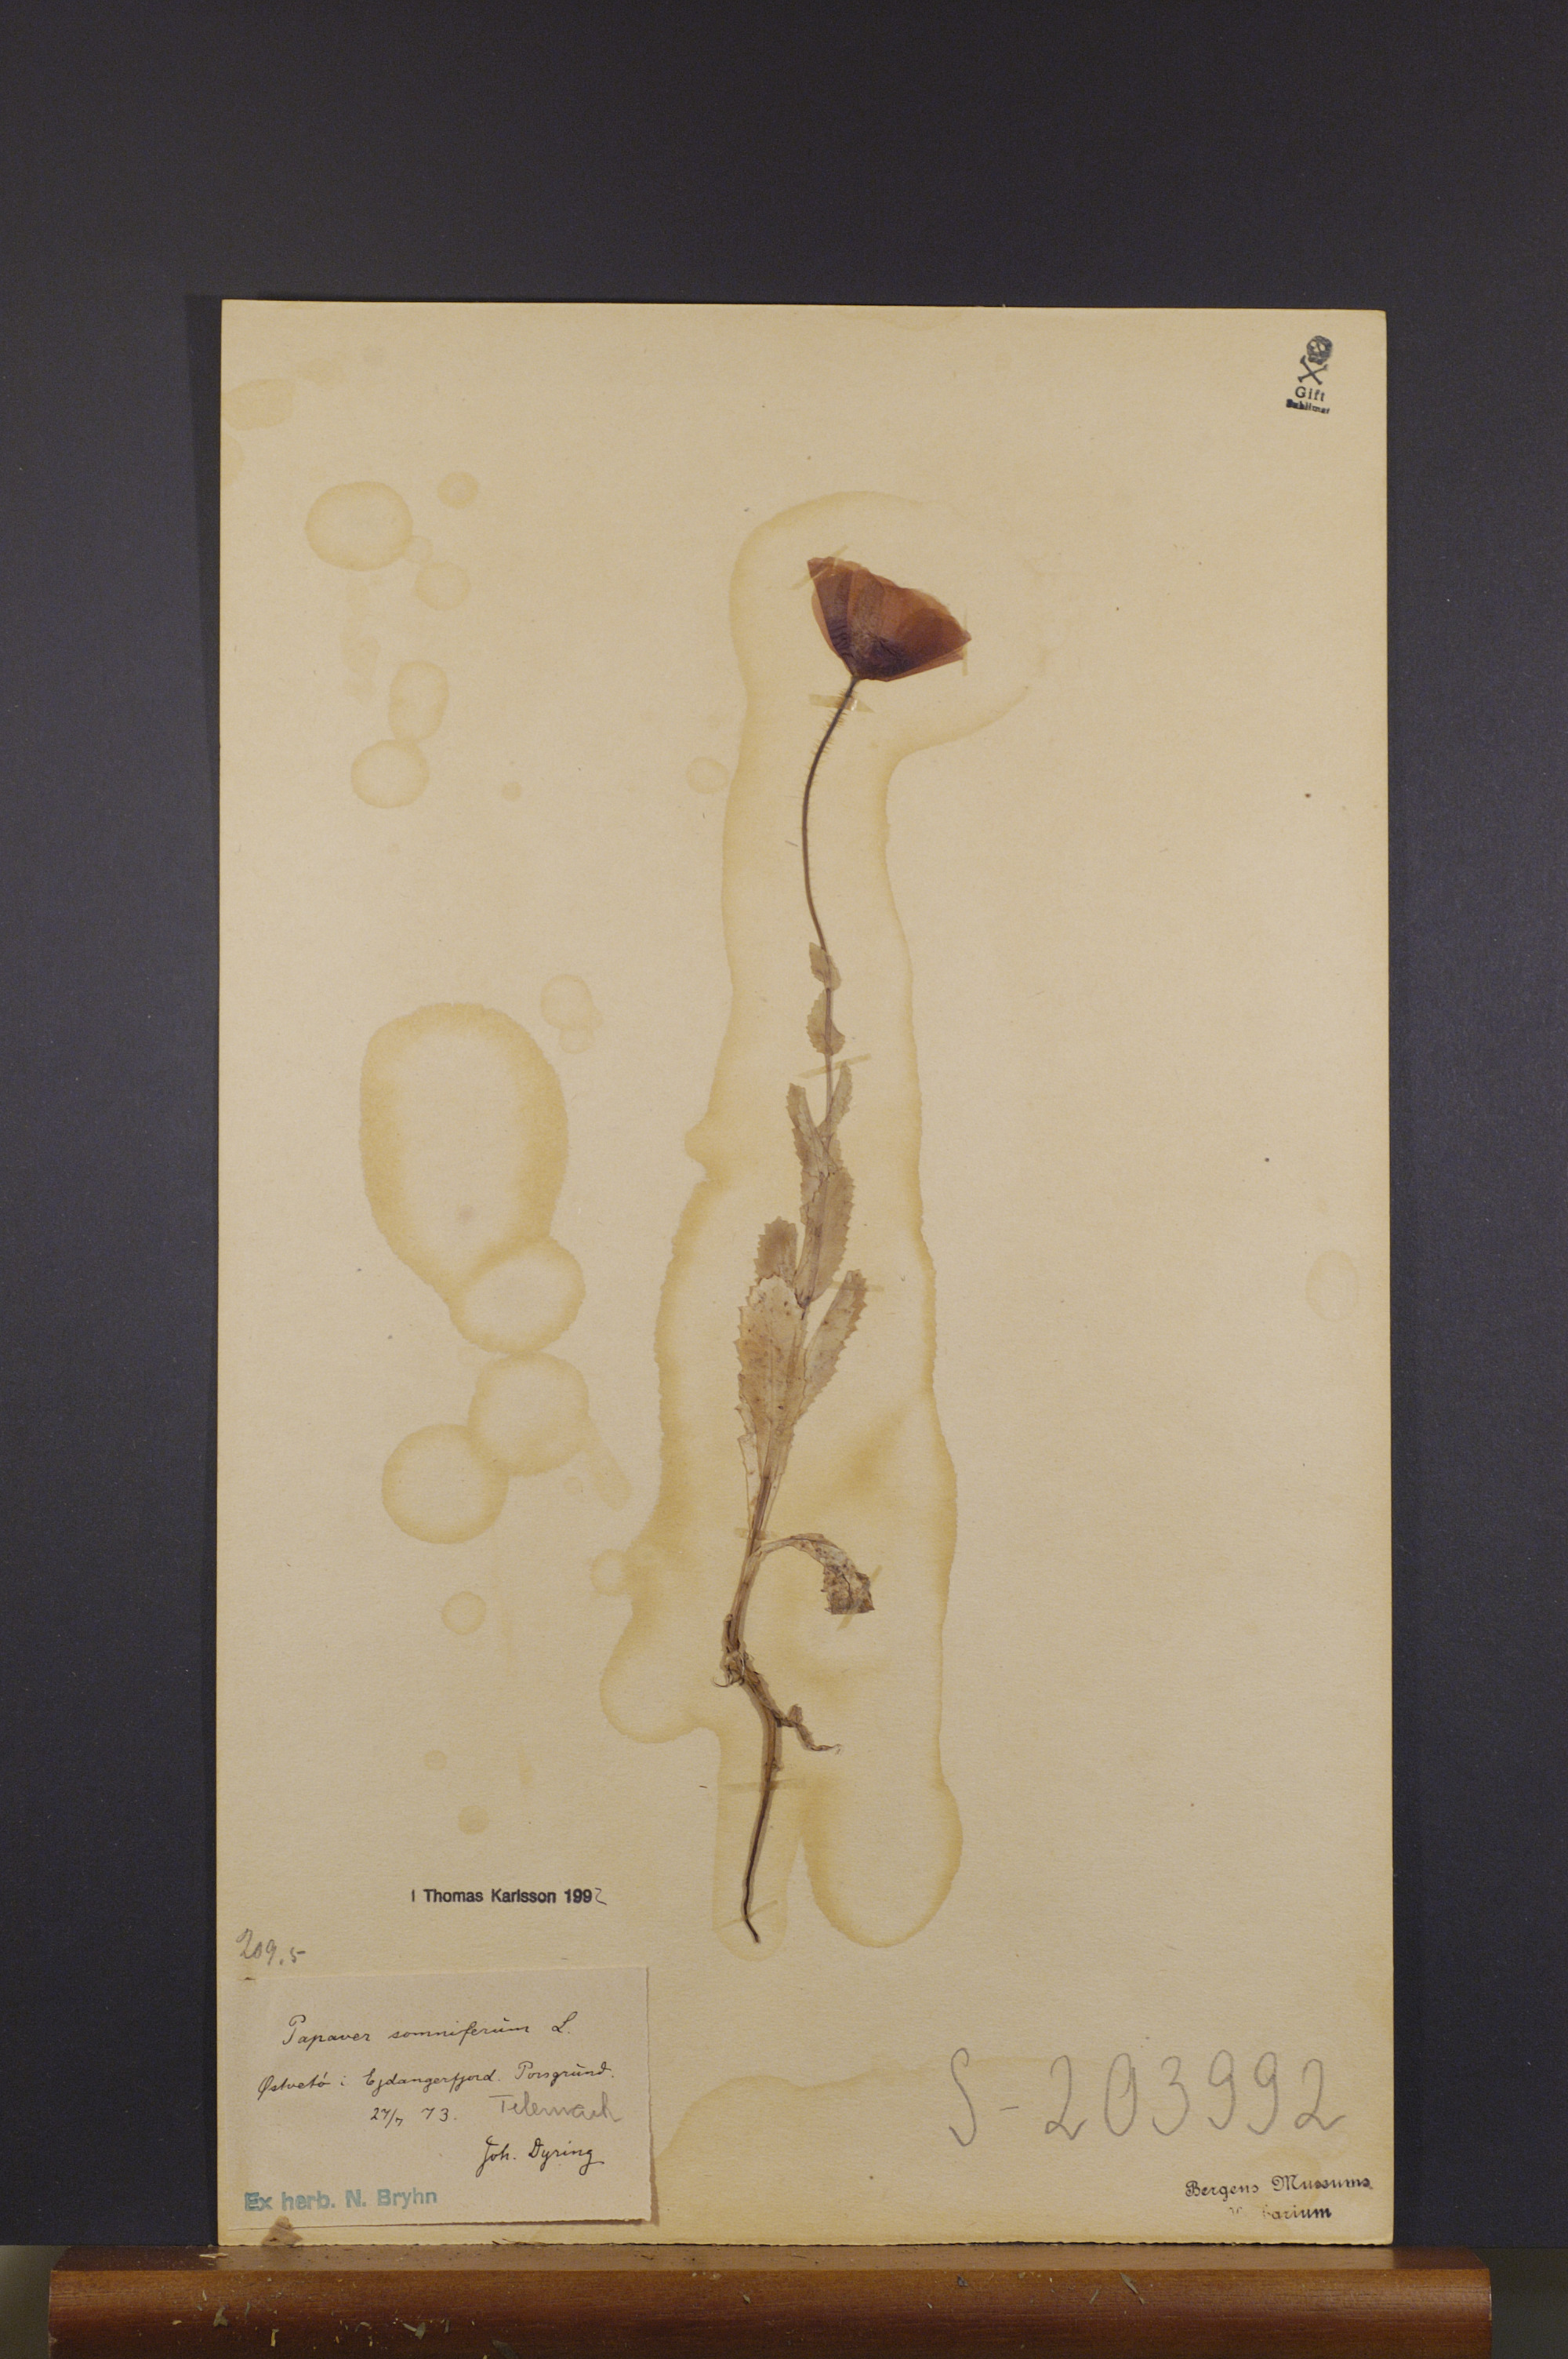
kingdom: Plantae
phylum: Tracheophyta
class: Magnoliopsida
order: Ranunculales
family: Papaveraceae
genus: Papaver
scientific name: Papaver somniferum
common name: Opium poppy
